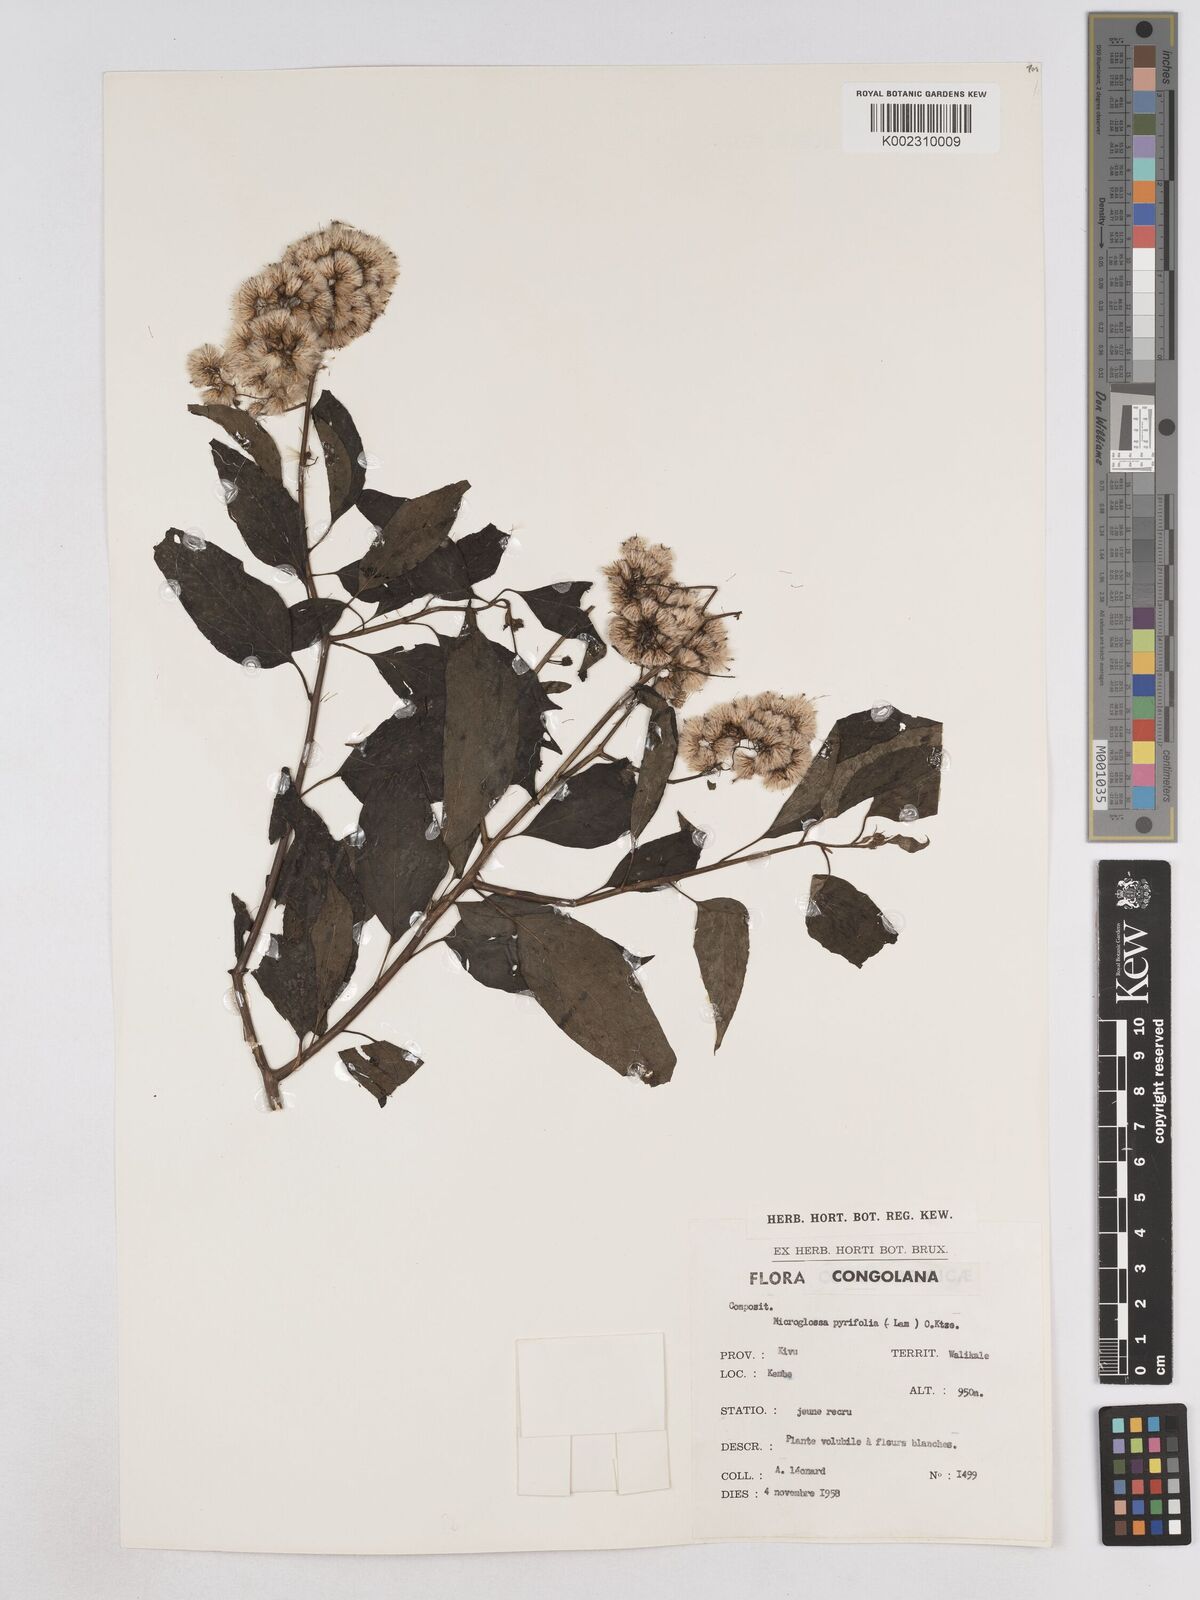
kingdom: Plantae
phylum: Tracheophyta
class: Magnoliopsida
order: Asterales
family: Asteraceae
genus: Microglossa
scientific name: Microglossa pyrifolia
